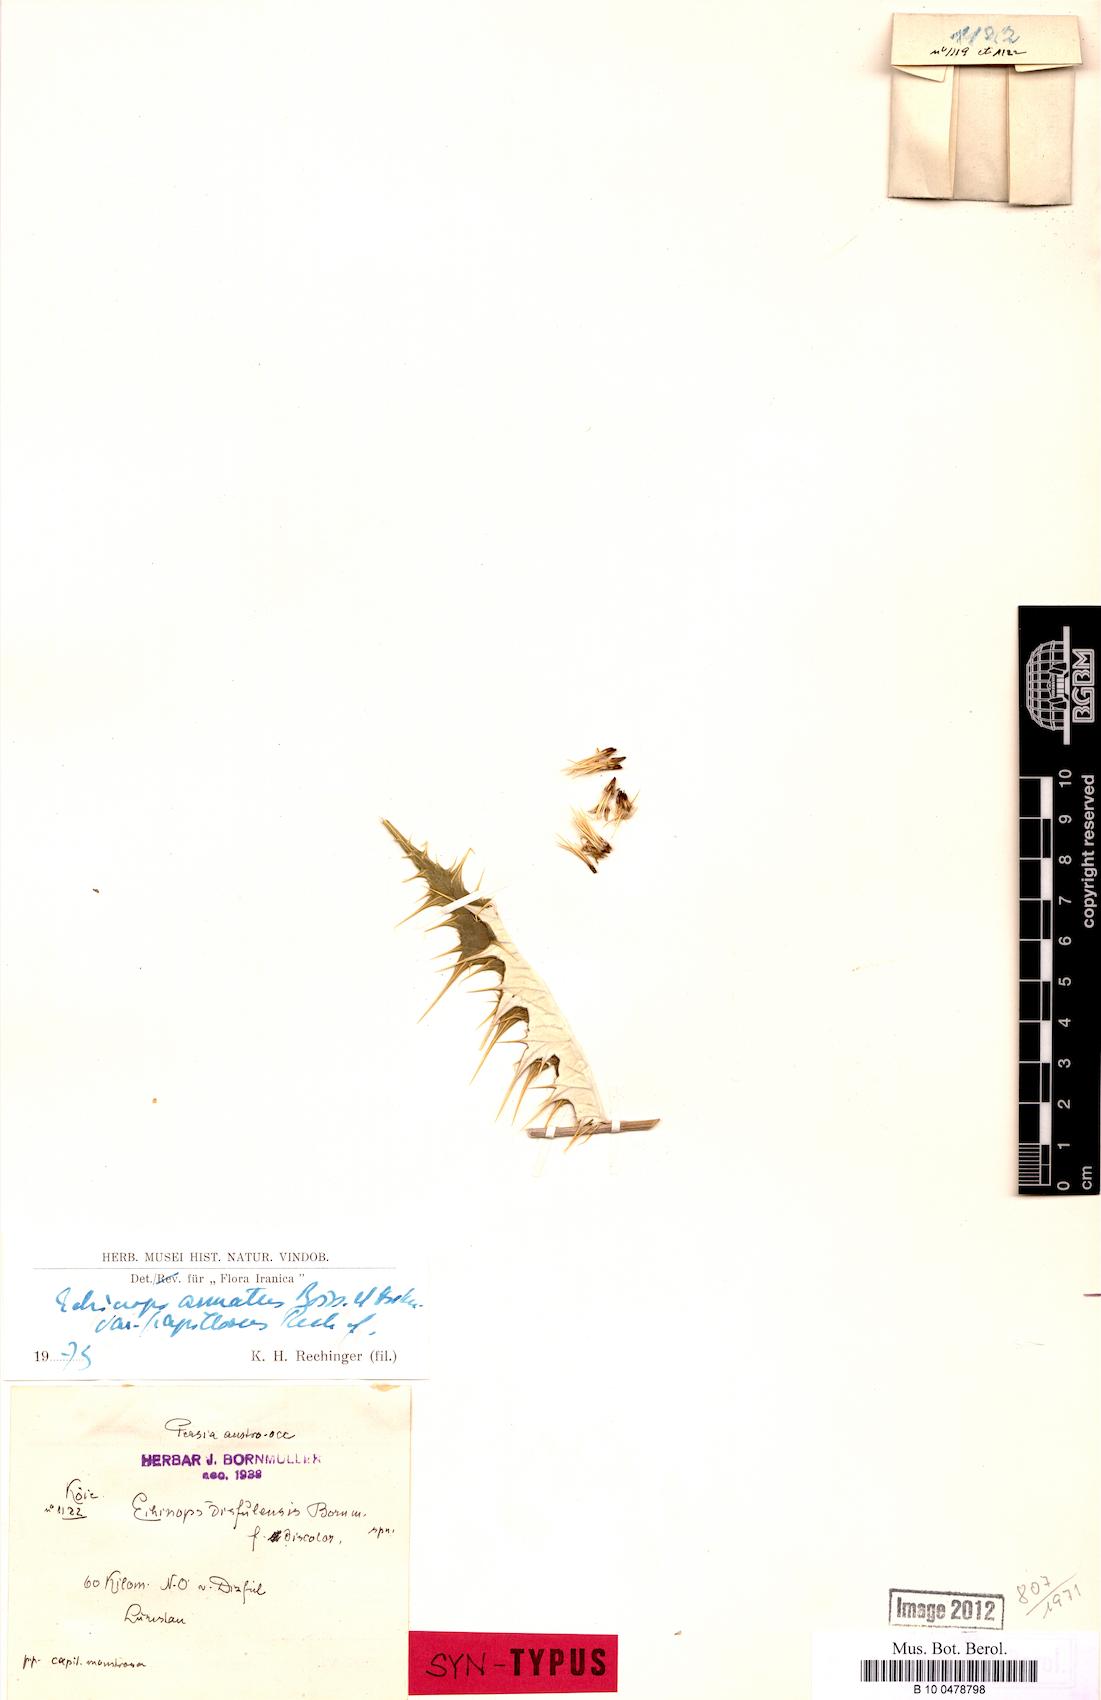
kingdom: Plantae
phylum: Tracheophyta
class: Magnoliopsida
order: Asterales
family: Asteraceae
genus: Echinops
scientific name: Echinops fraudator
